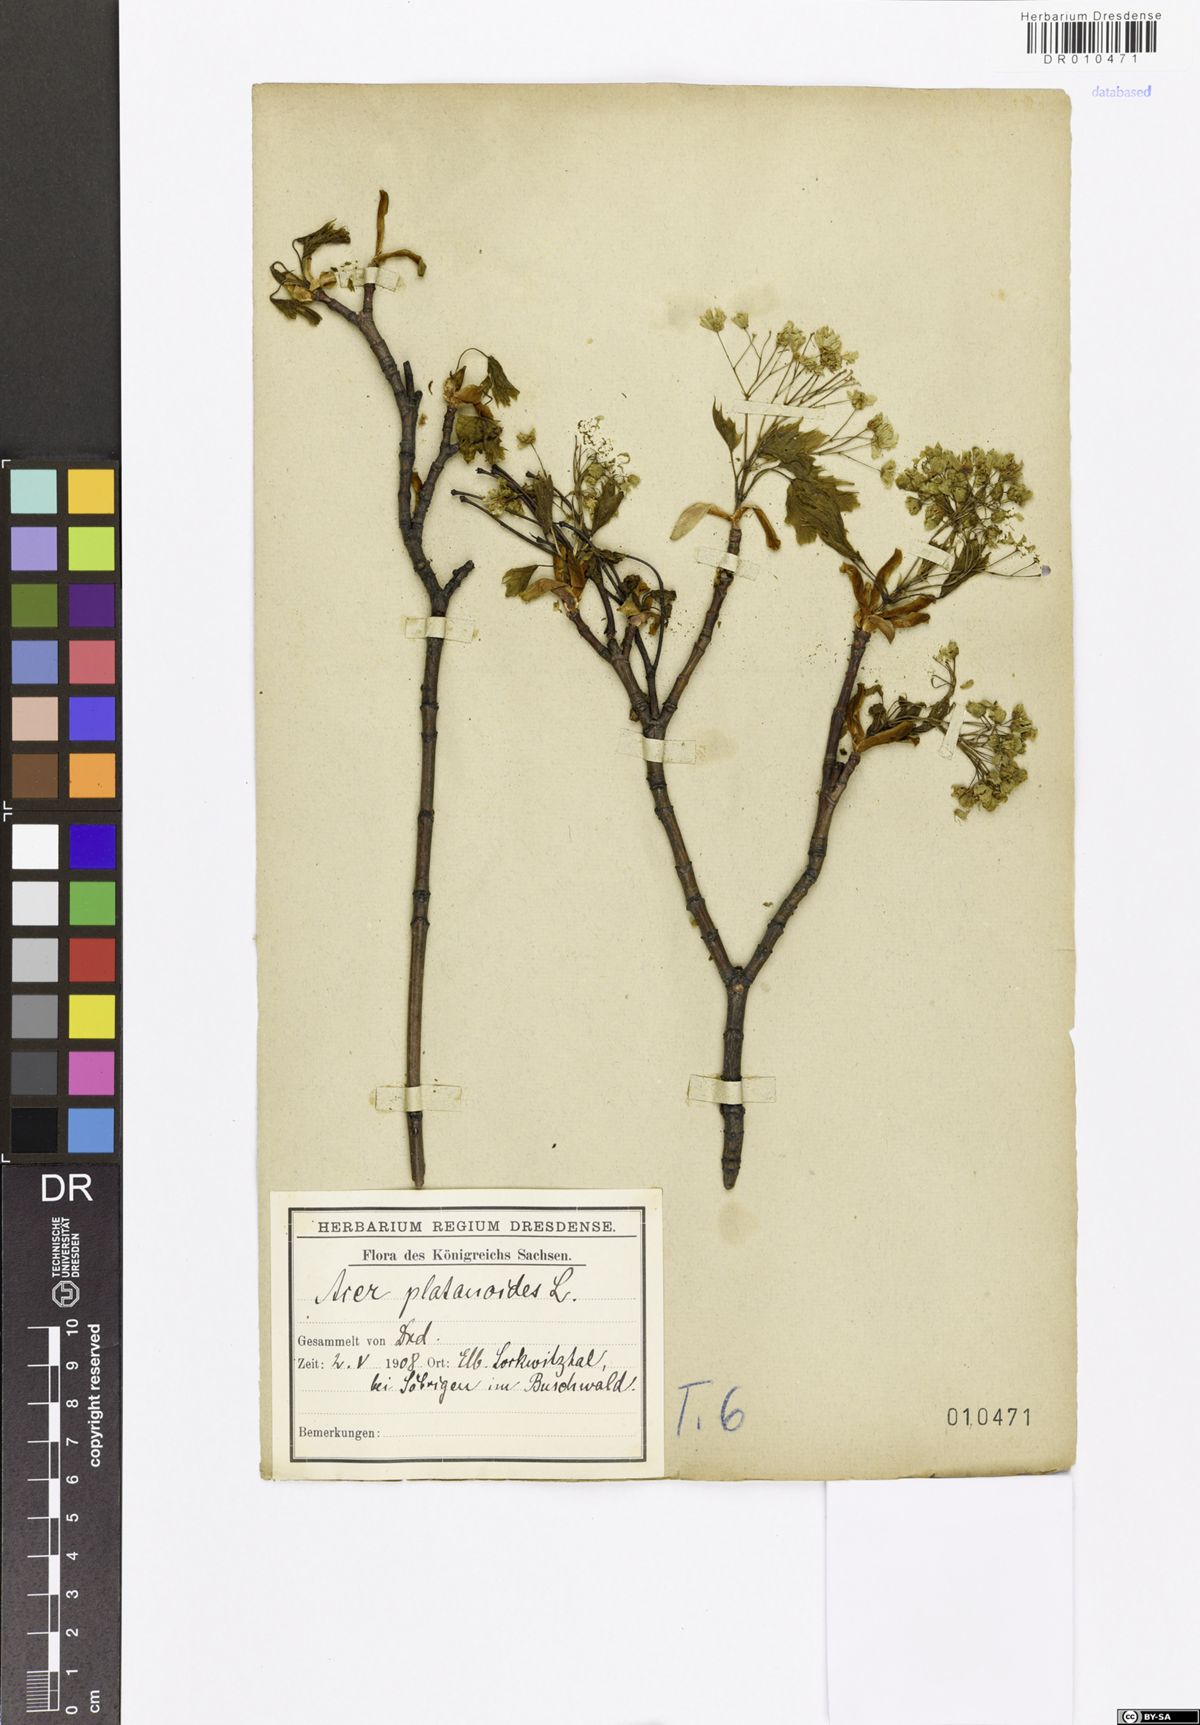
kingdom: Plantae
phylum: Tracheophyta
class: Magnoliopsida
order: Sapindales
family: Sapindaceae
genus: Acer
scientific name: Acer platanoides
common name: Norway maple
